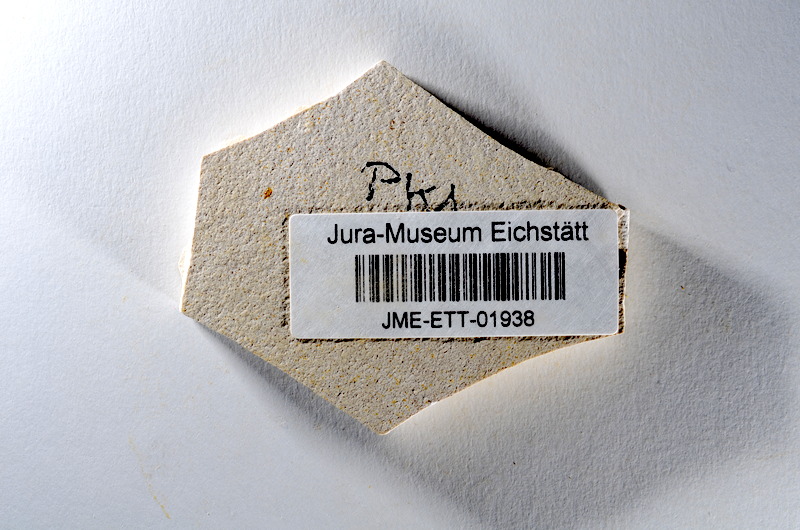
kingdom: Animalia
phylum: Chordata
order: Salmoniformes
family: Orthogonikleithridae
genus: Orthogonikleithrus
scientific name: Orthogonikleithrus hoelli
